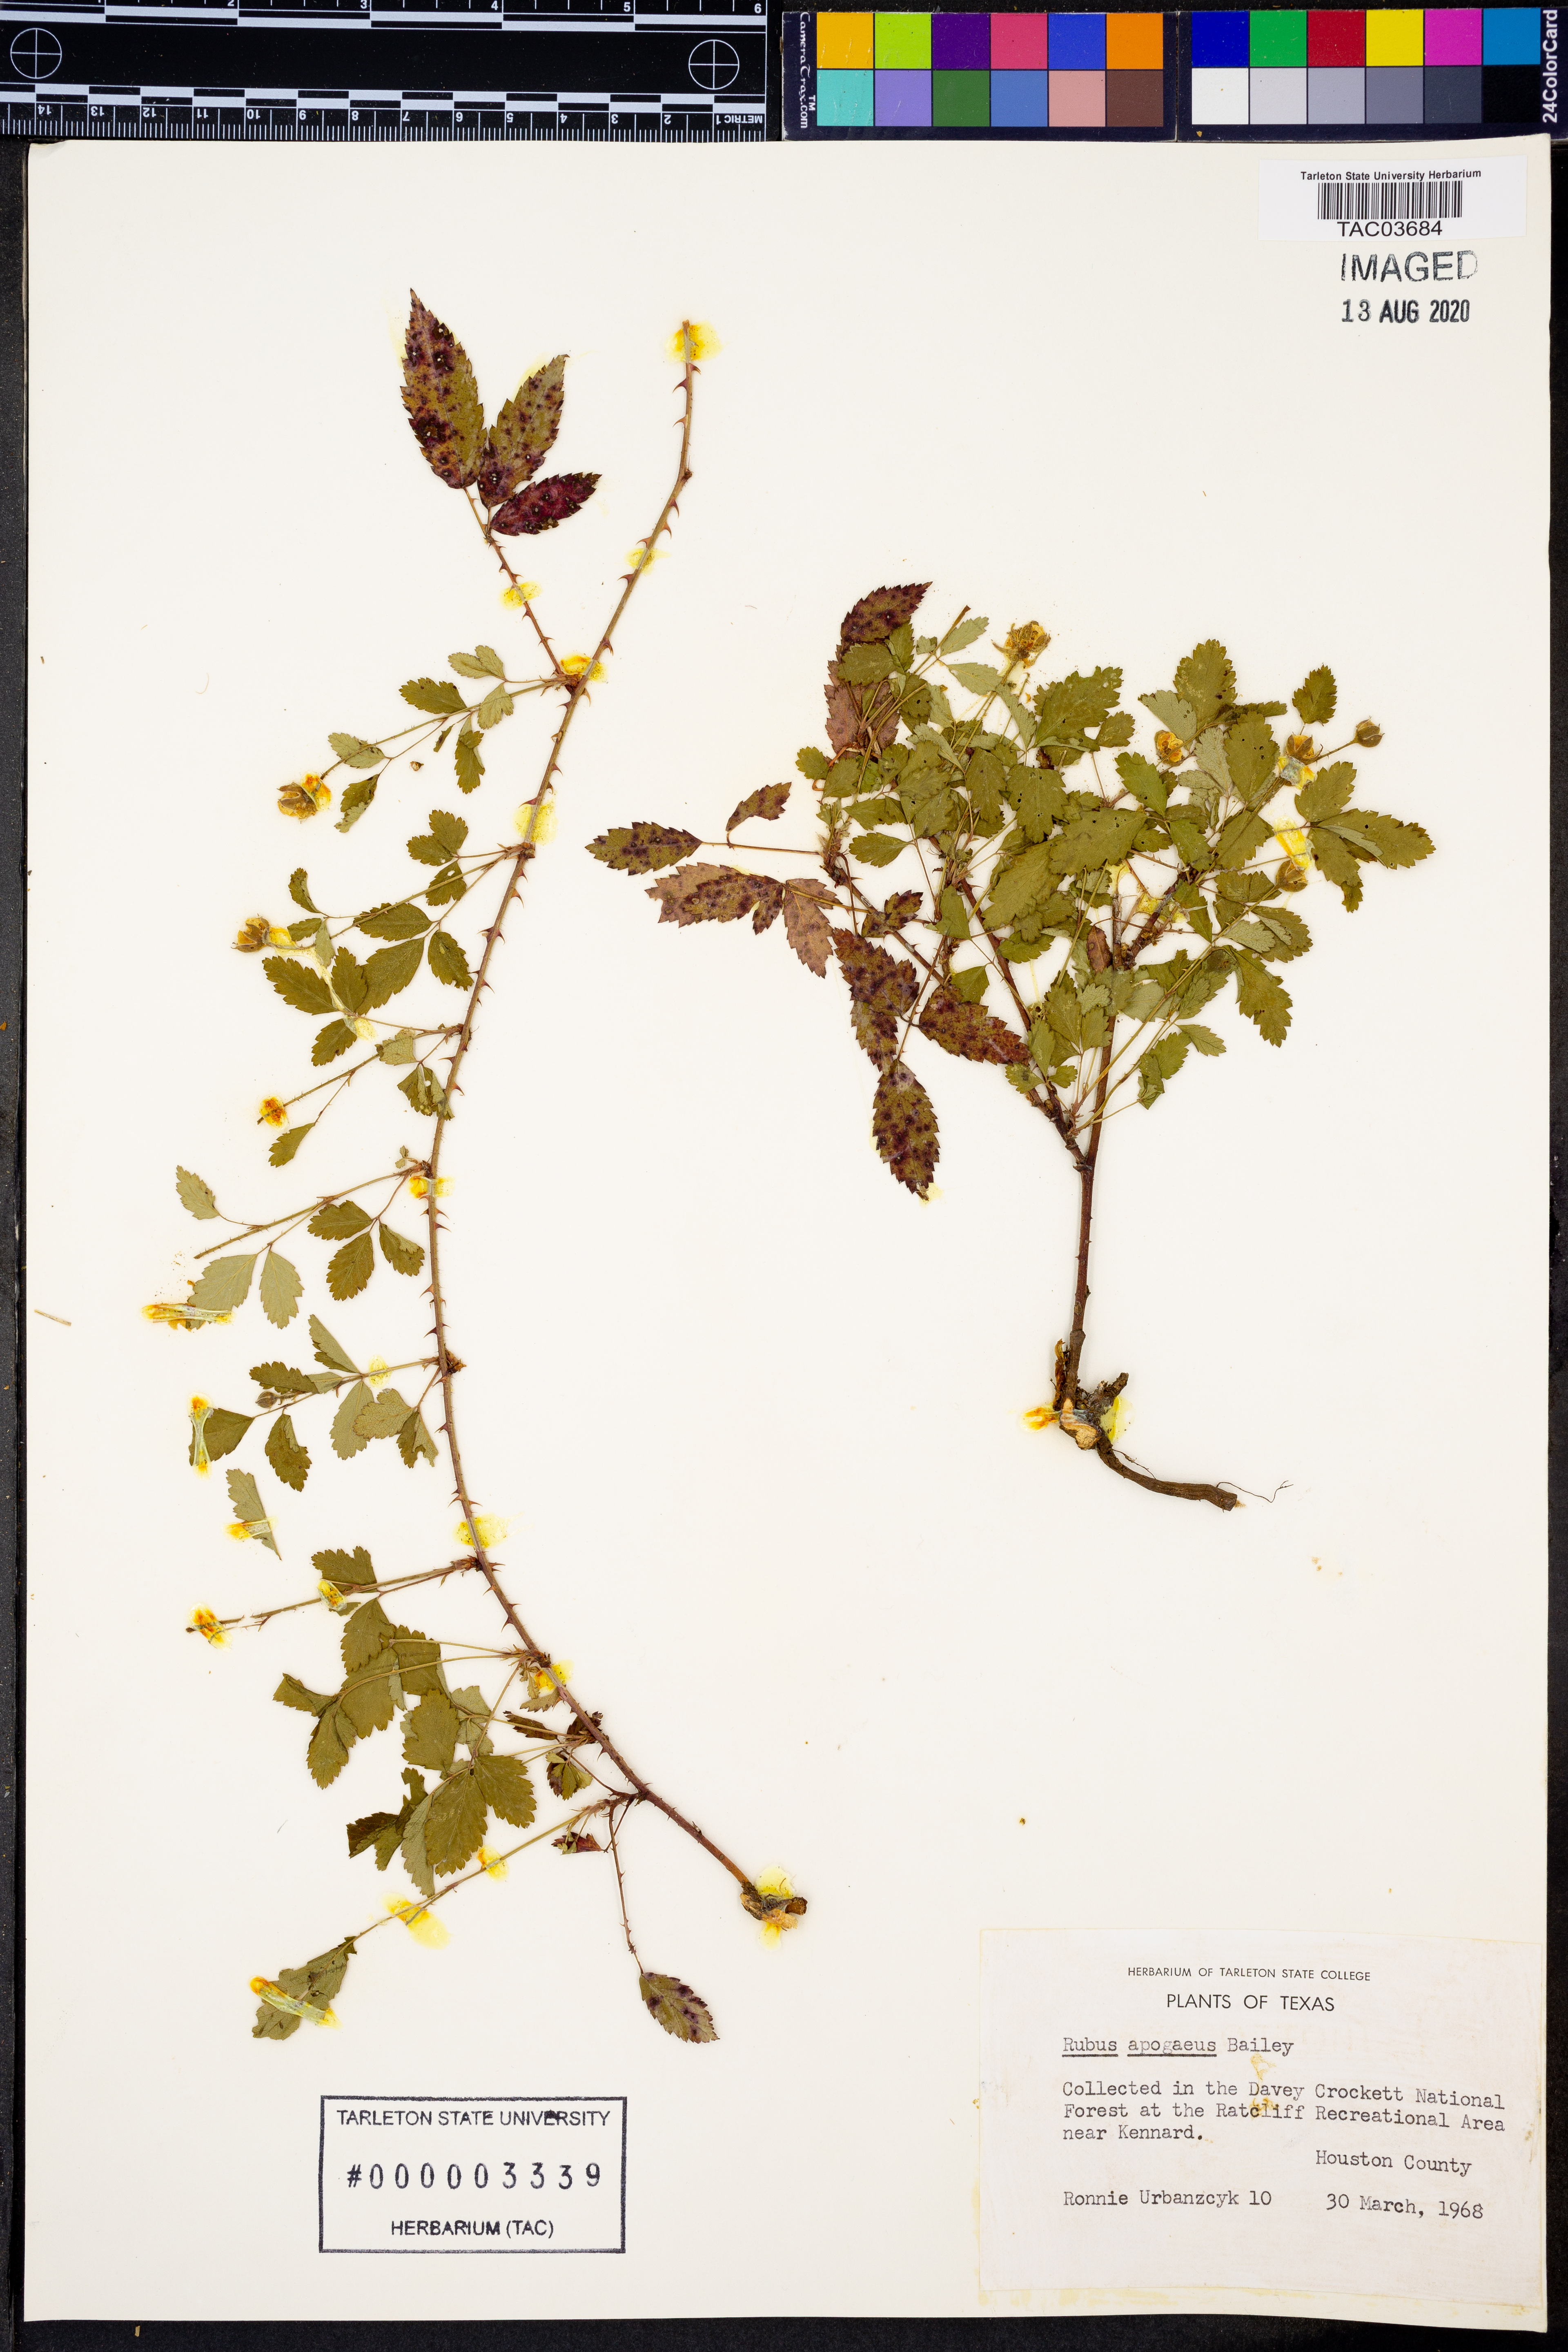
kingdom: Plantae
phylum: Tracheophyta
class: Magnoliopsida
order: Rosales
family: Rosaceae
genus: Rubus
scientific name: Rubus apogaeus
